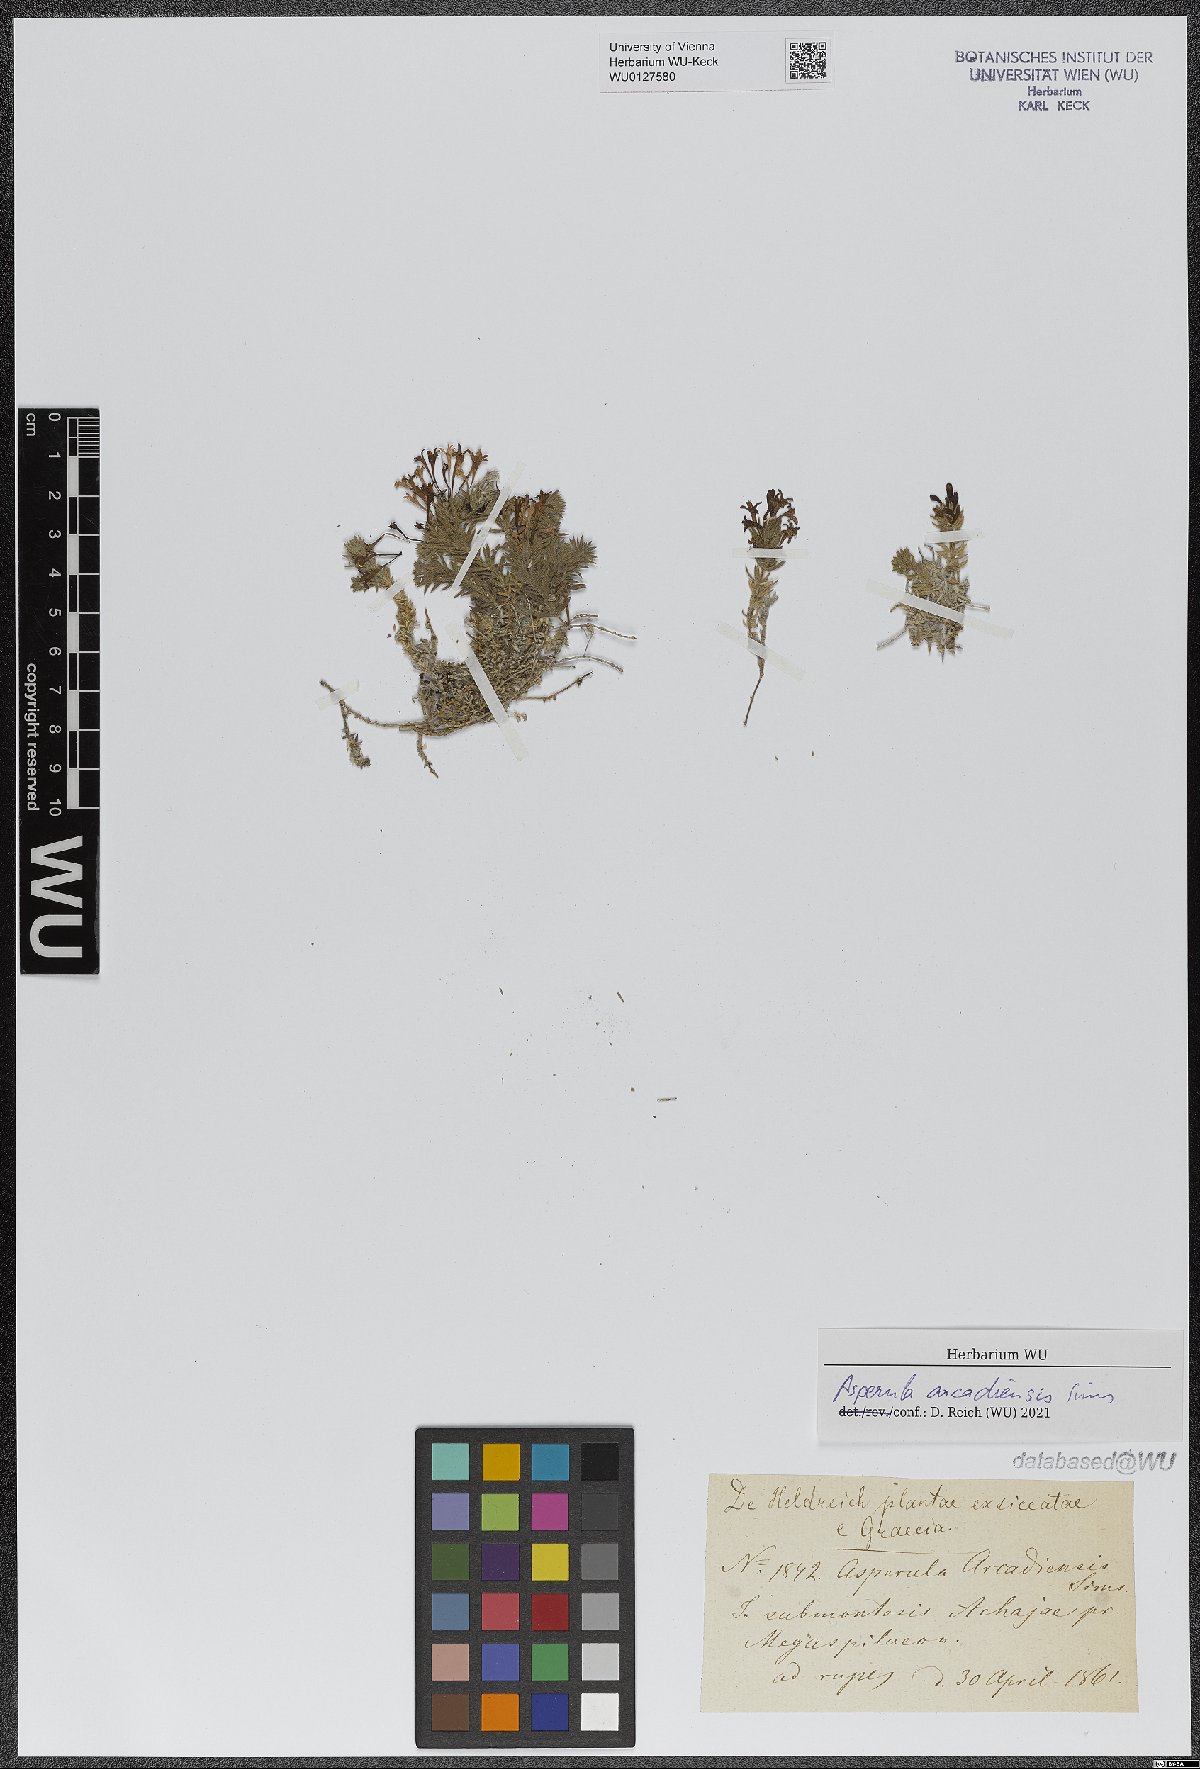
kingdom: Plantae
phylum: Tracheophyta
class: Magnoliopsida
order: Gentianales
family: Rubiaceae
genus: Hexaphylla
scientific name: Hexaphylla arcadiensis
